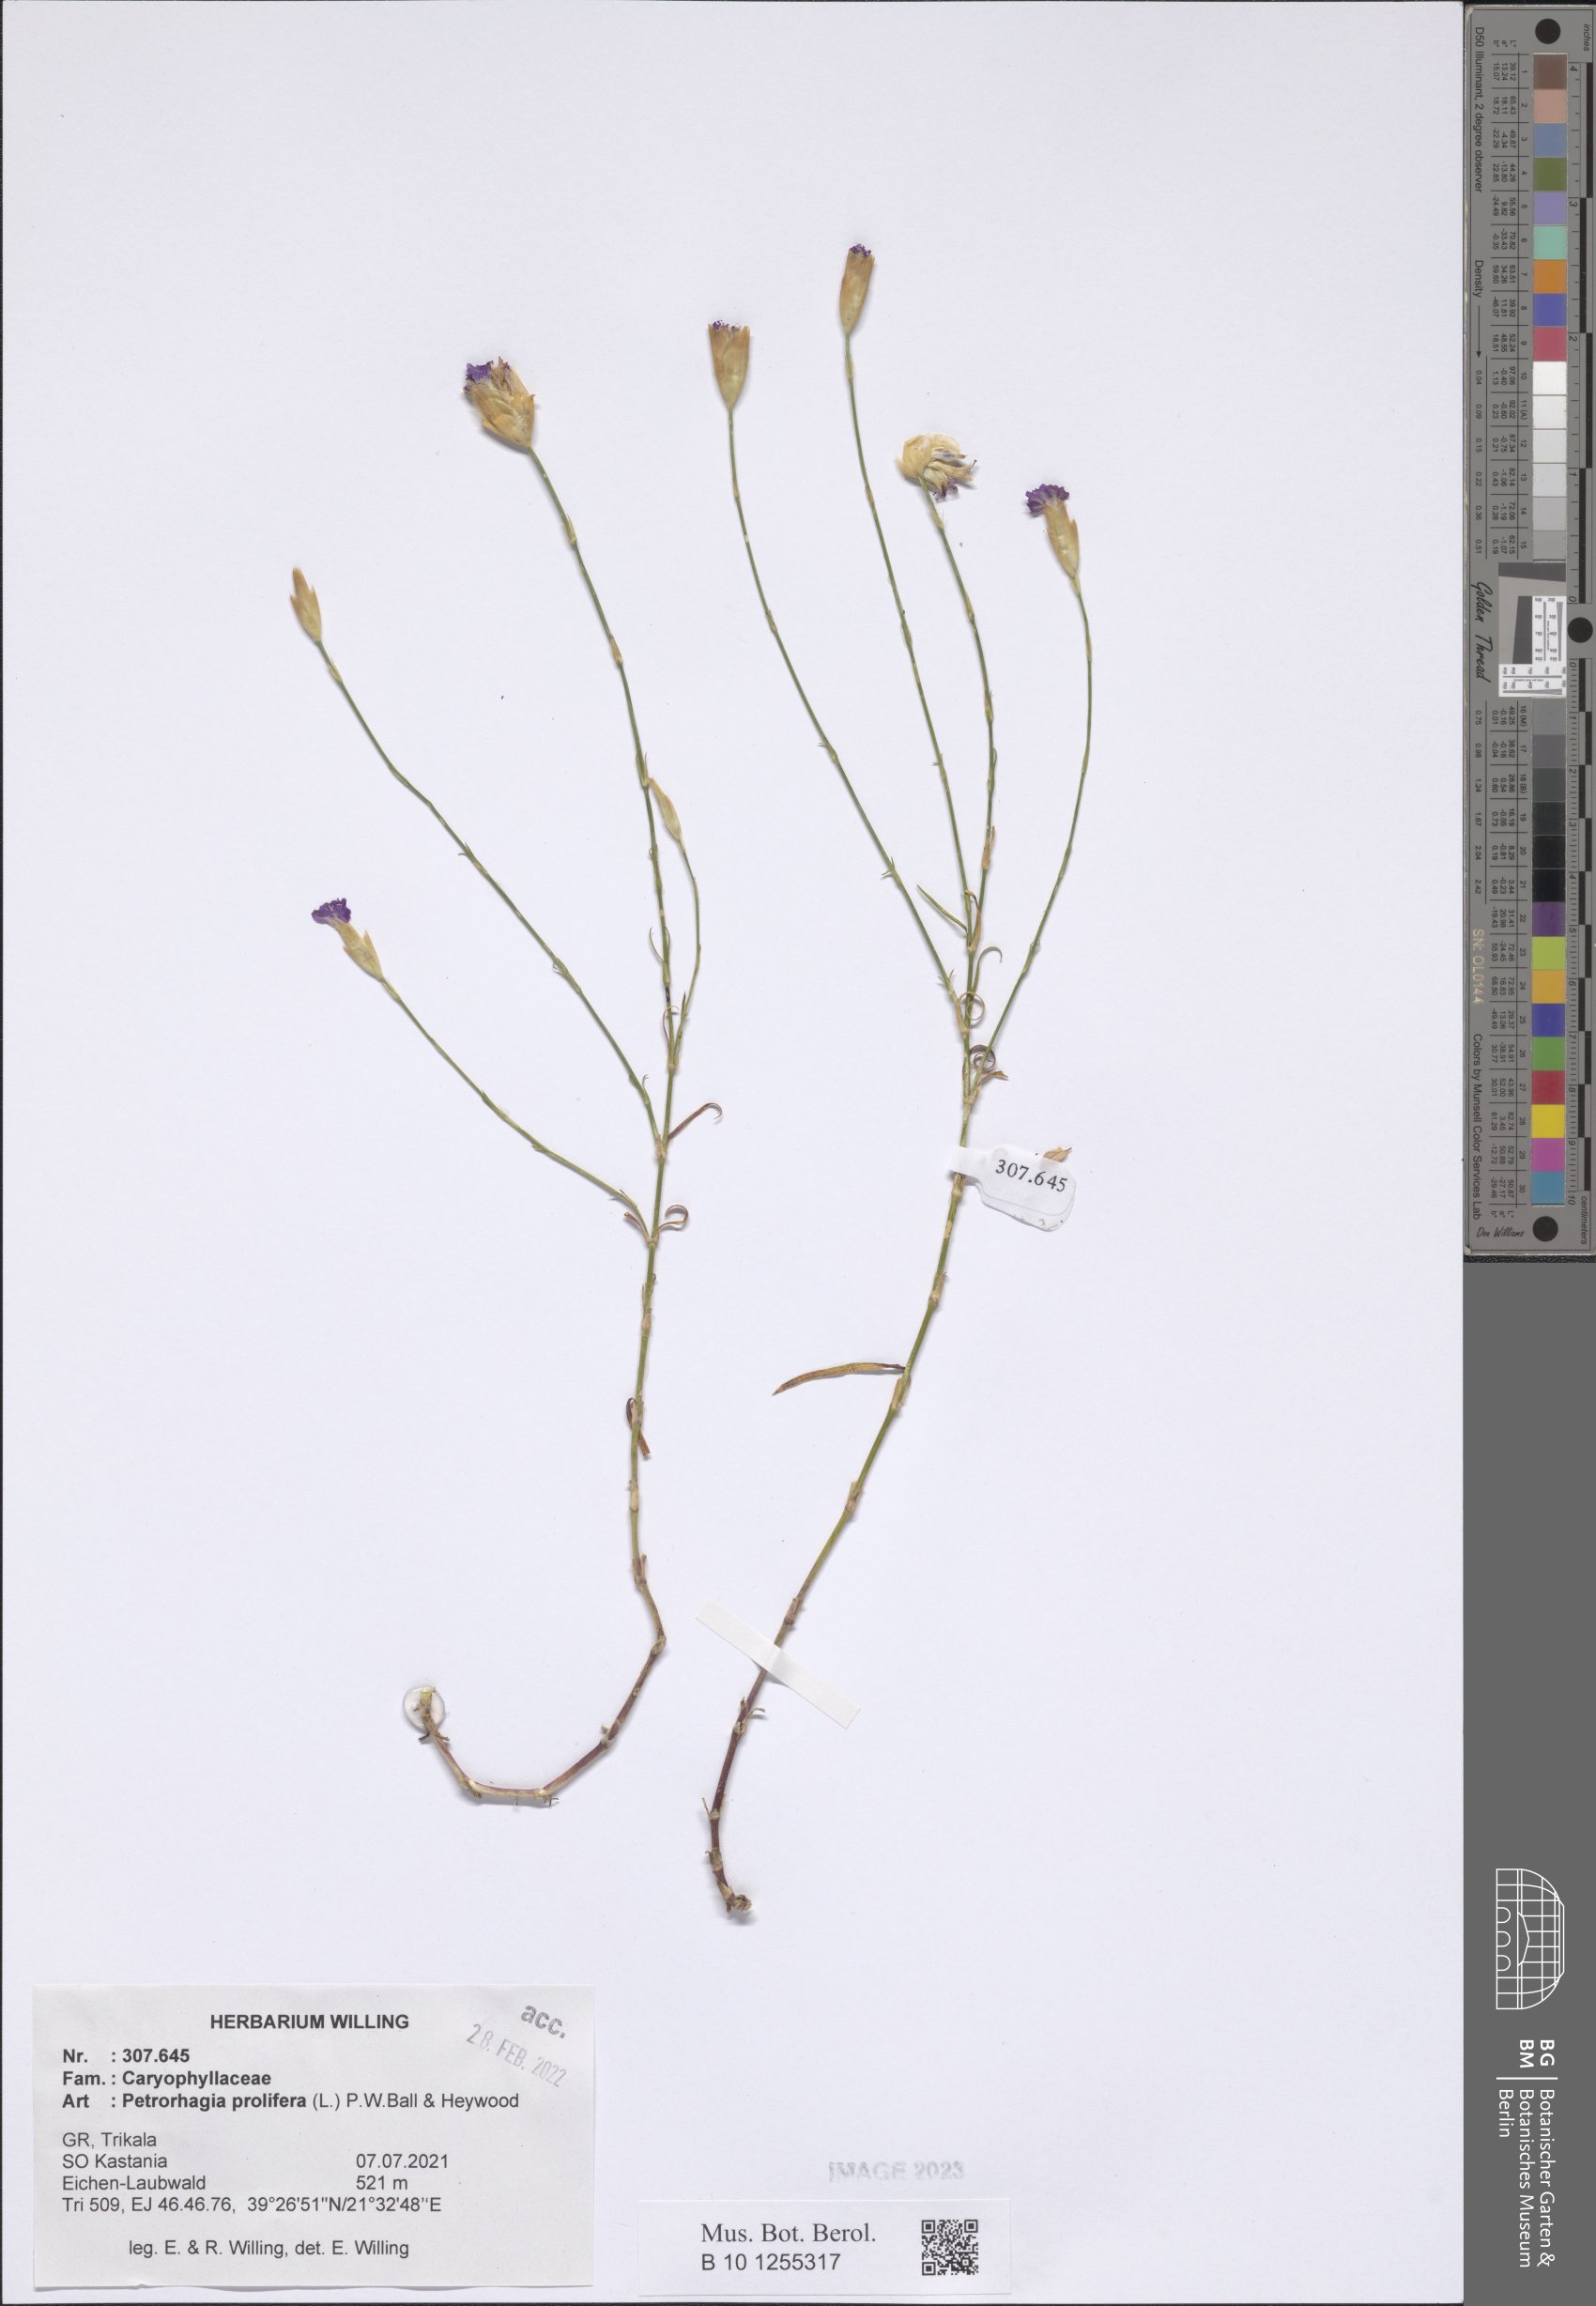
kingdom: Plantae
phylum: Tracheophyta
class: Magnoliopsida
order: Caryophyllales
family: Caryophyllaceae
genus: Petrorhagia
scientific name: Petrorhagia prolifera
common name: Proliferous pink
